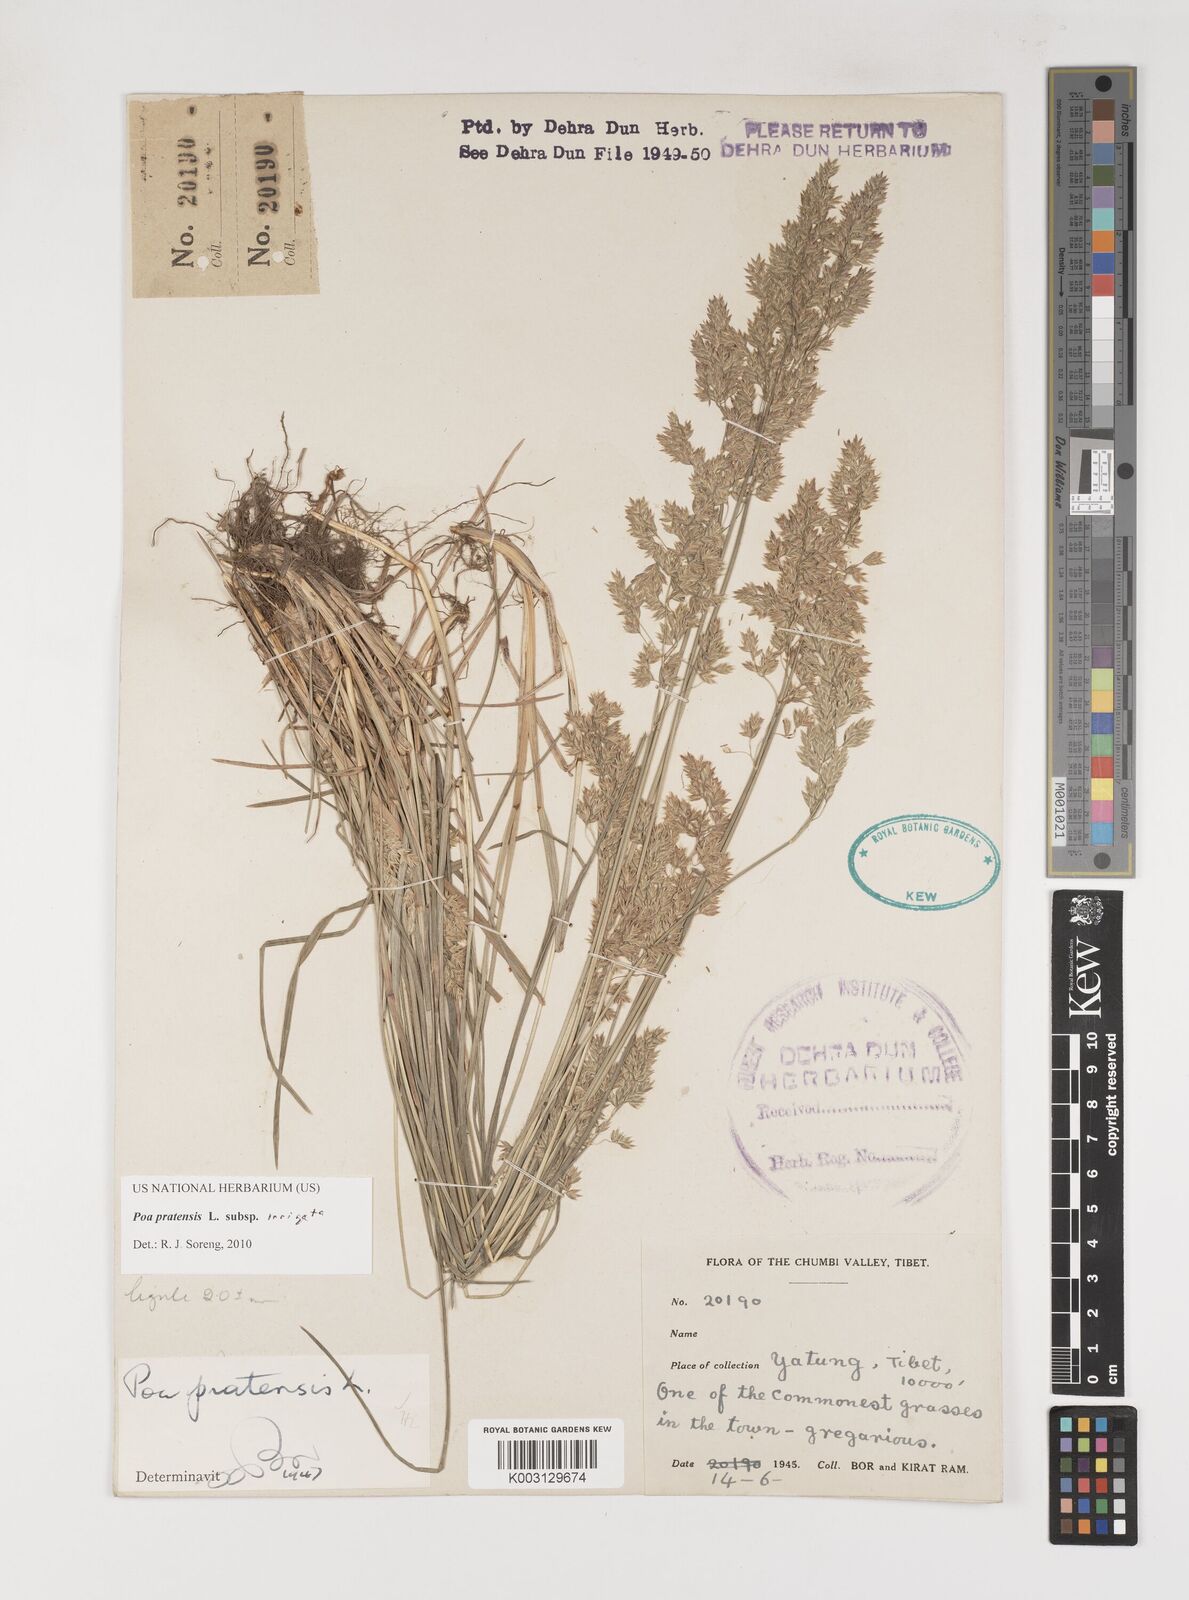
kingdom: Plantae
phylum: Tracheophyta
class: Liliopsida
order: Poales
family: Poaceae
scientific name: Poaceae
